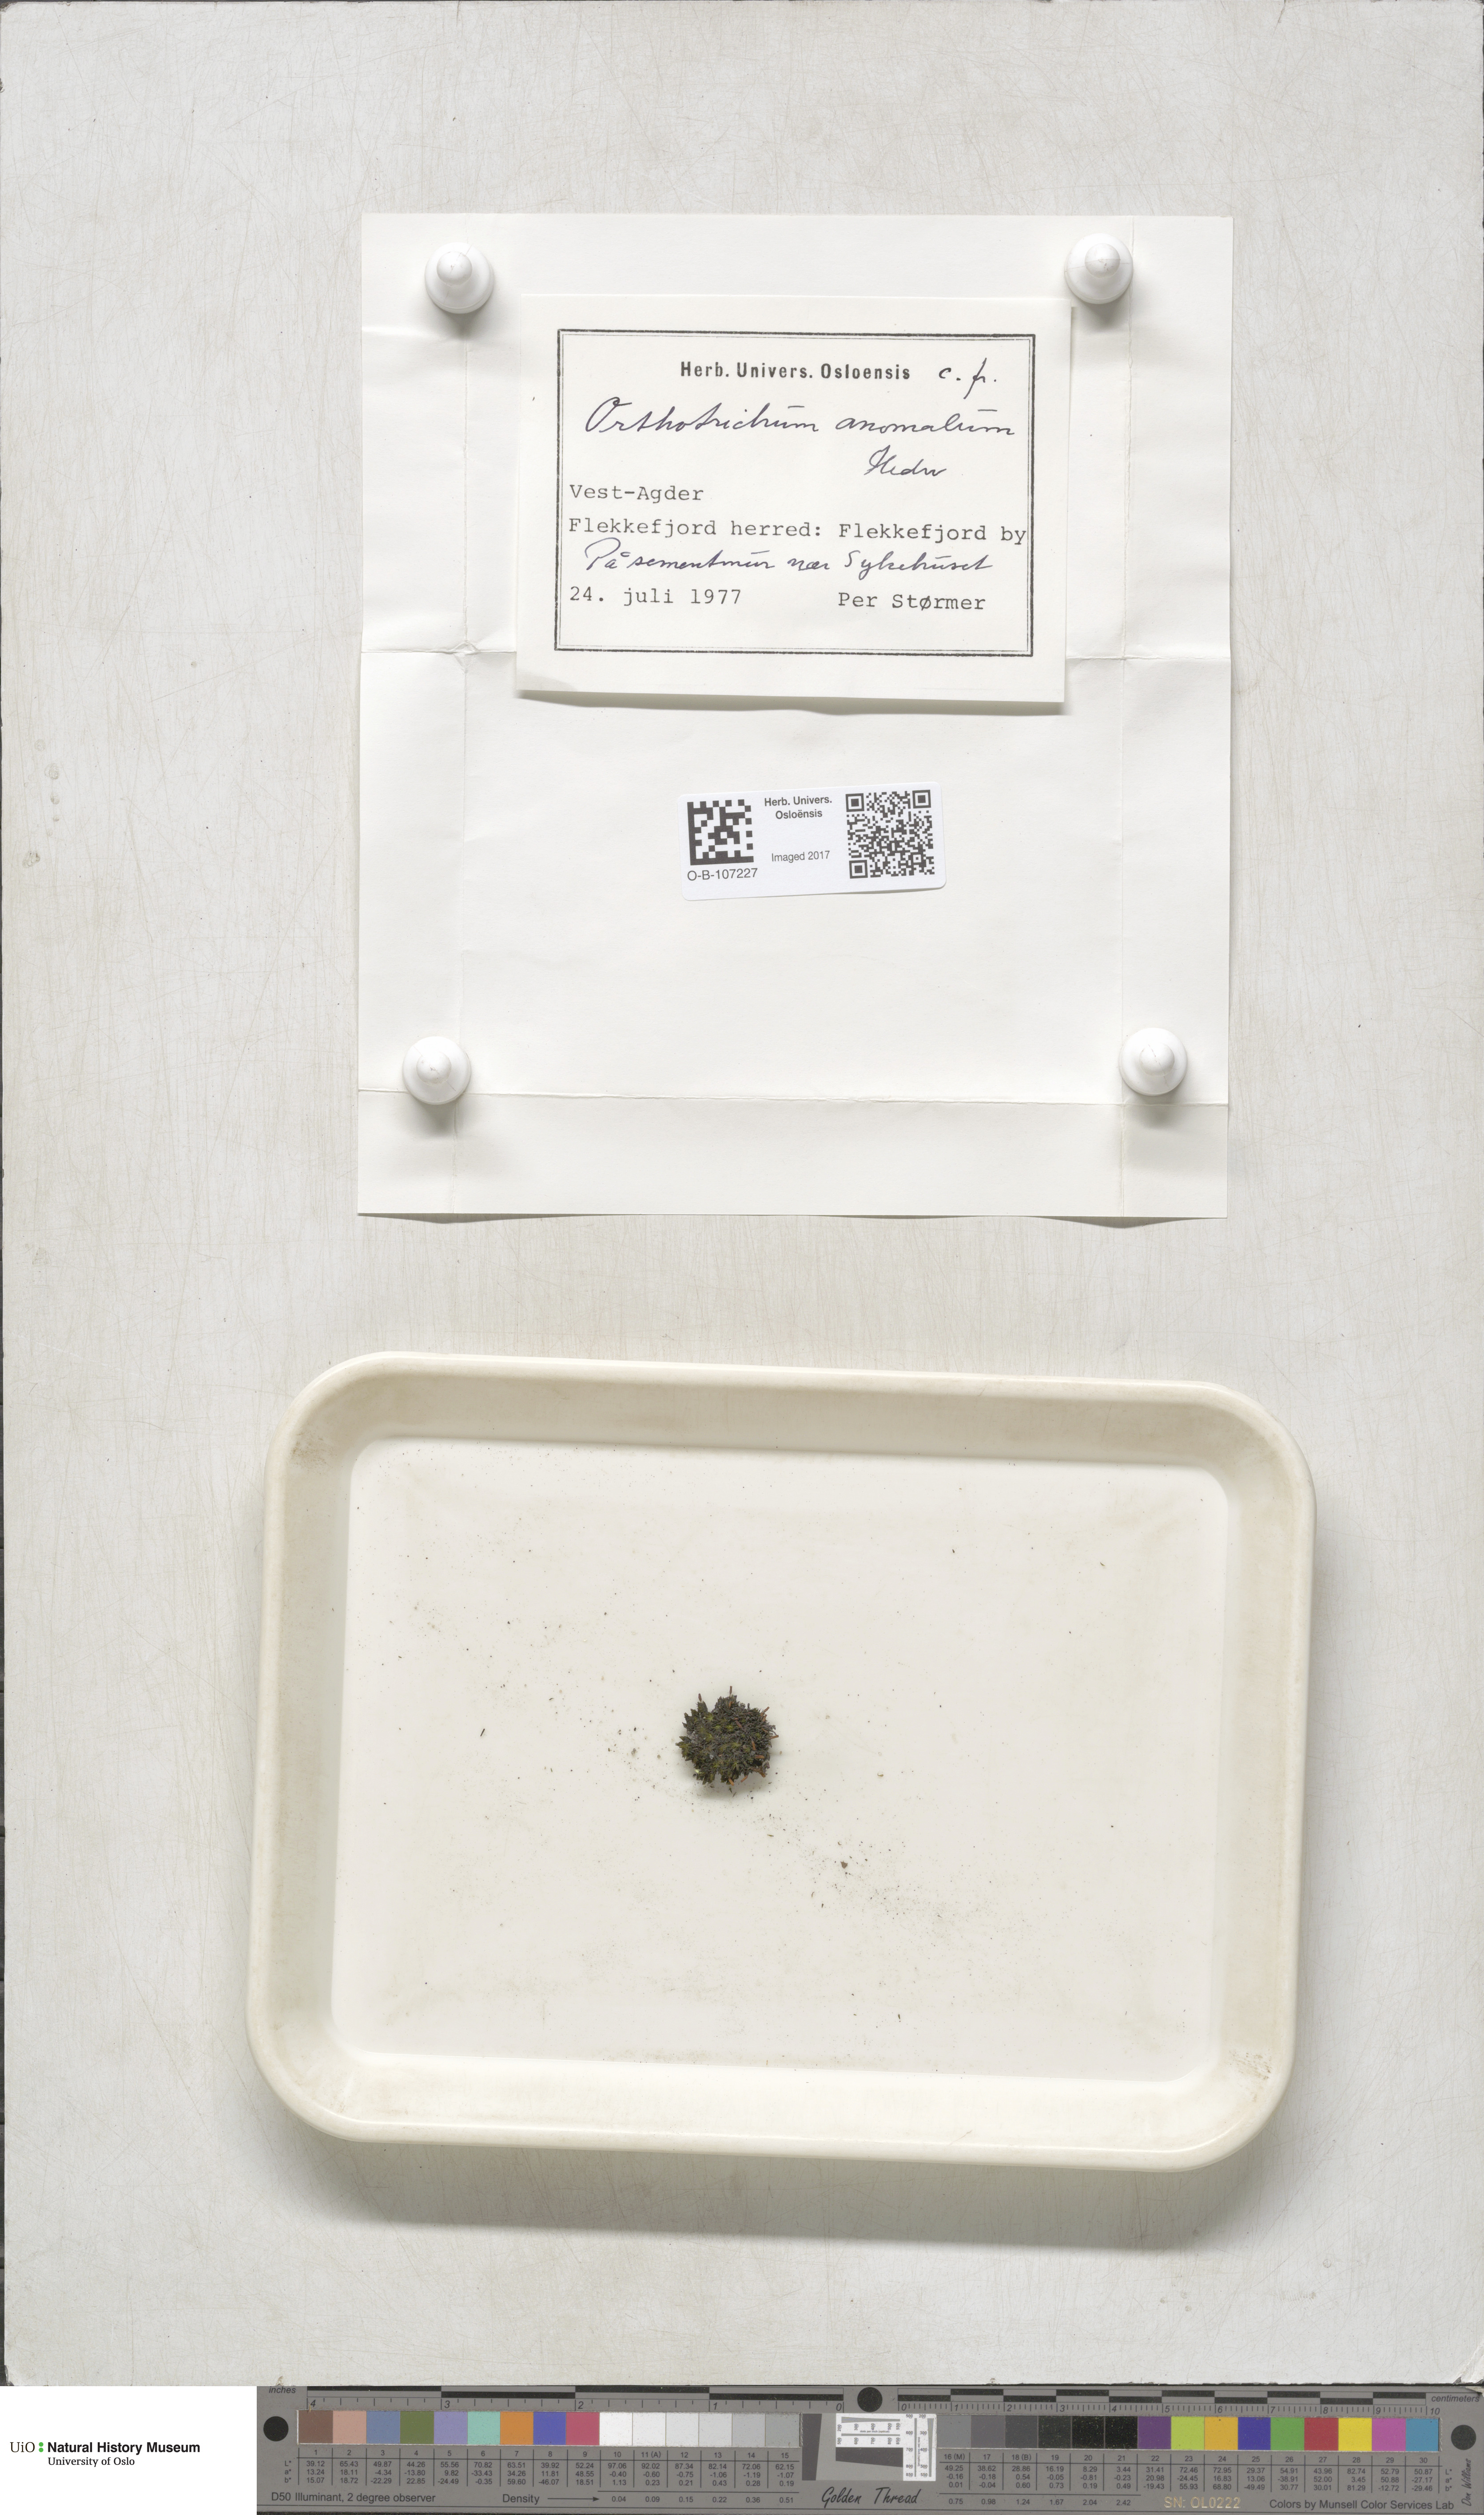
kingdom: Plantae
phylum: Bryophyta
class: Bryopsida
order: Orthotrichales
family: Orthotrichaceae
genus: Orthotrichum
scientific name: Orthotrichum anomalum
